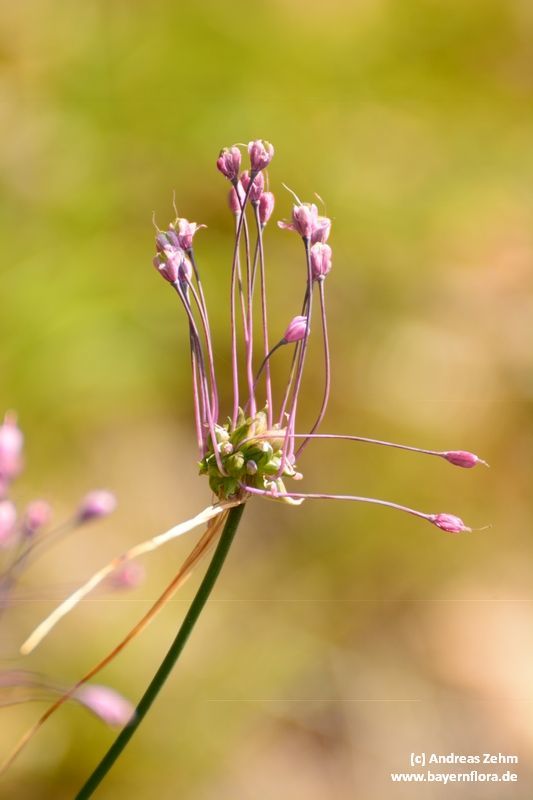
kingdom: Plantae
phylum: Tracheophyta
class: Liliopsida
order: Asparagales
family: Amaryllidaceae
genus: Allium
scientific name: Allium carinatum
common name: Keeled garlic
